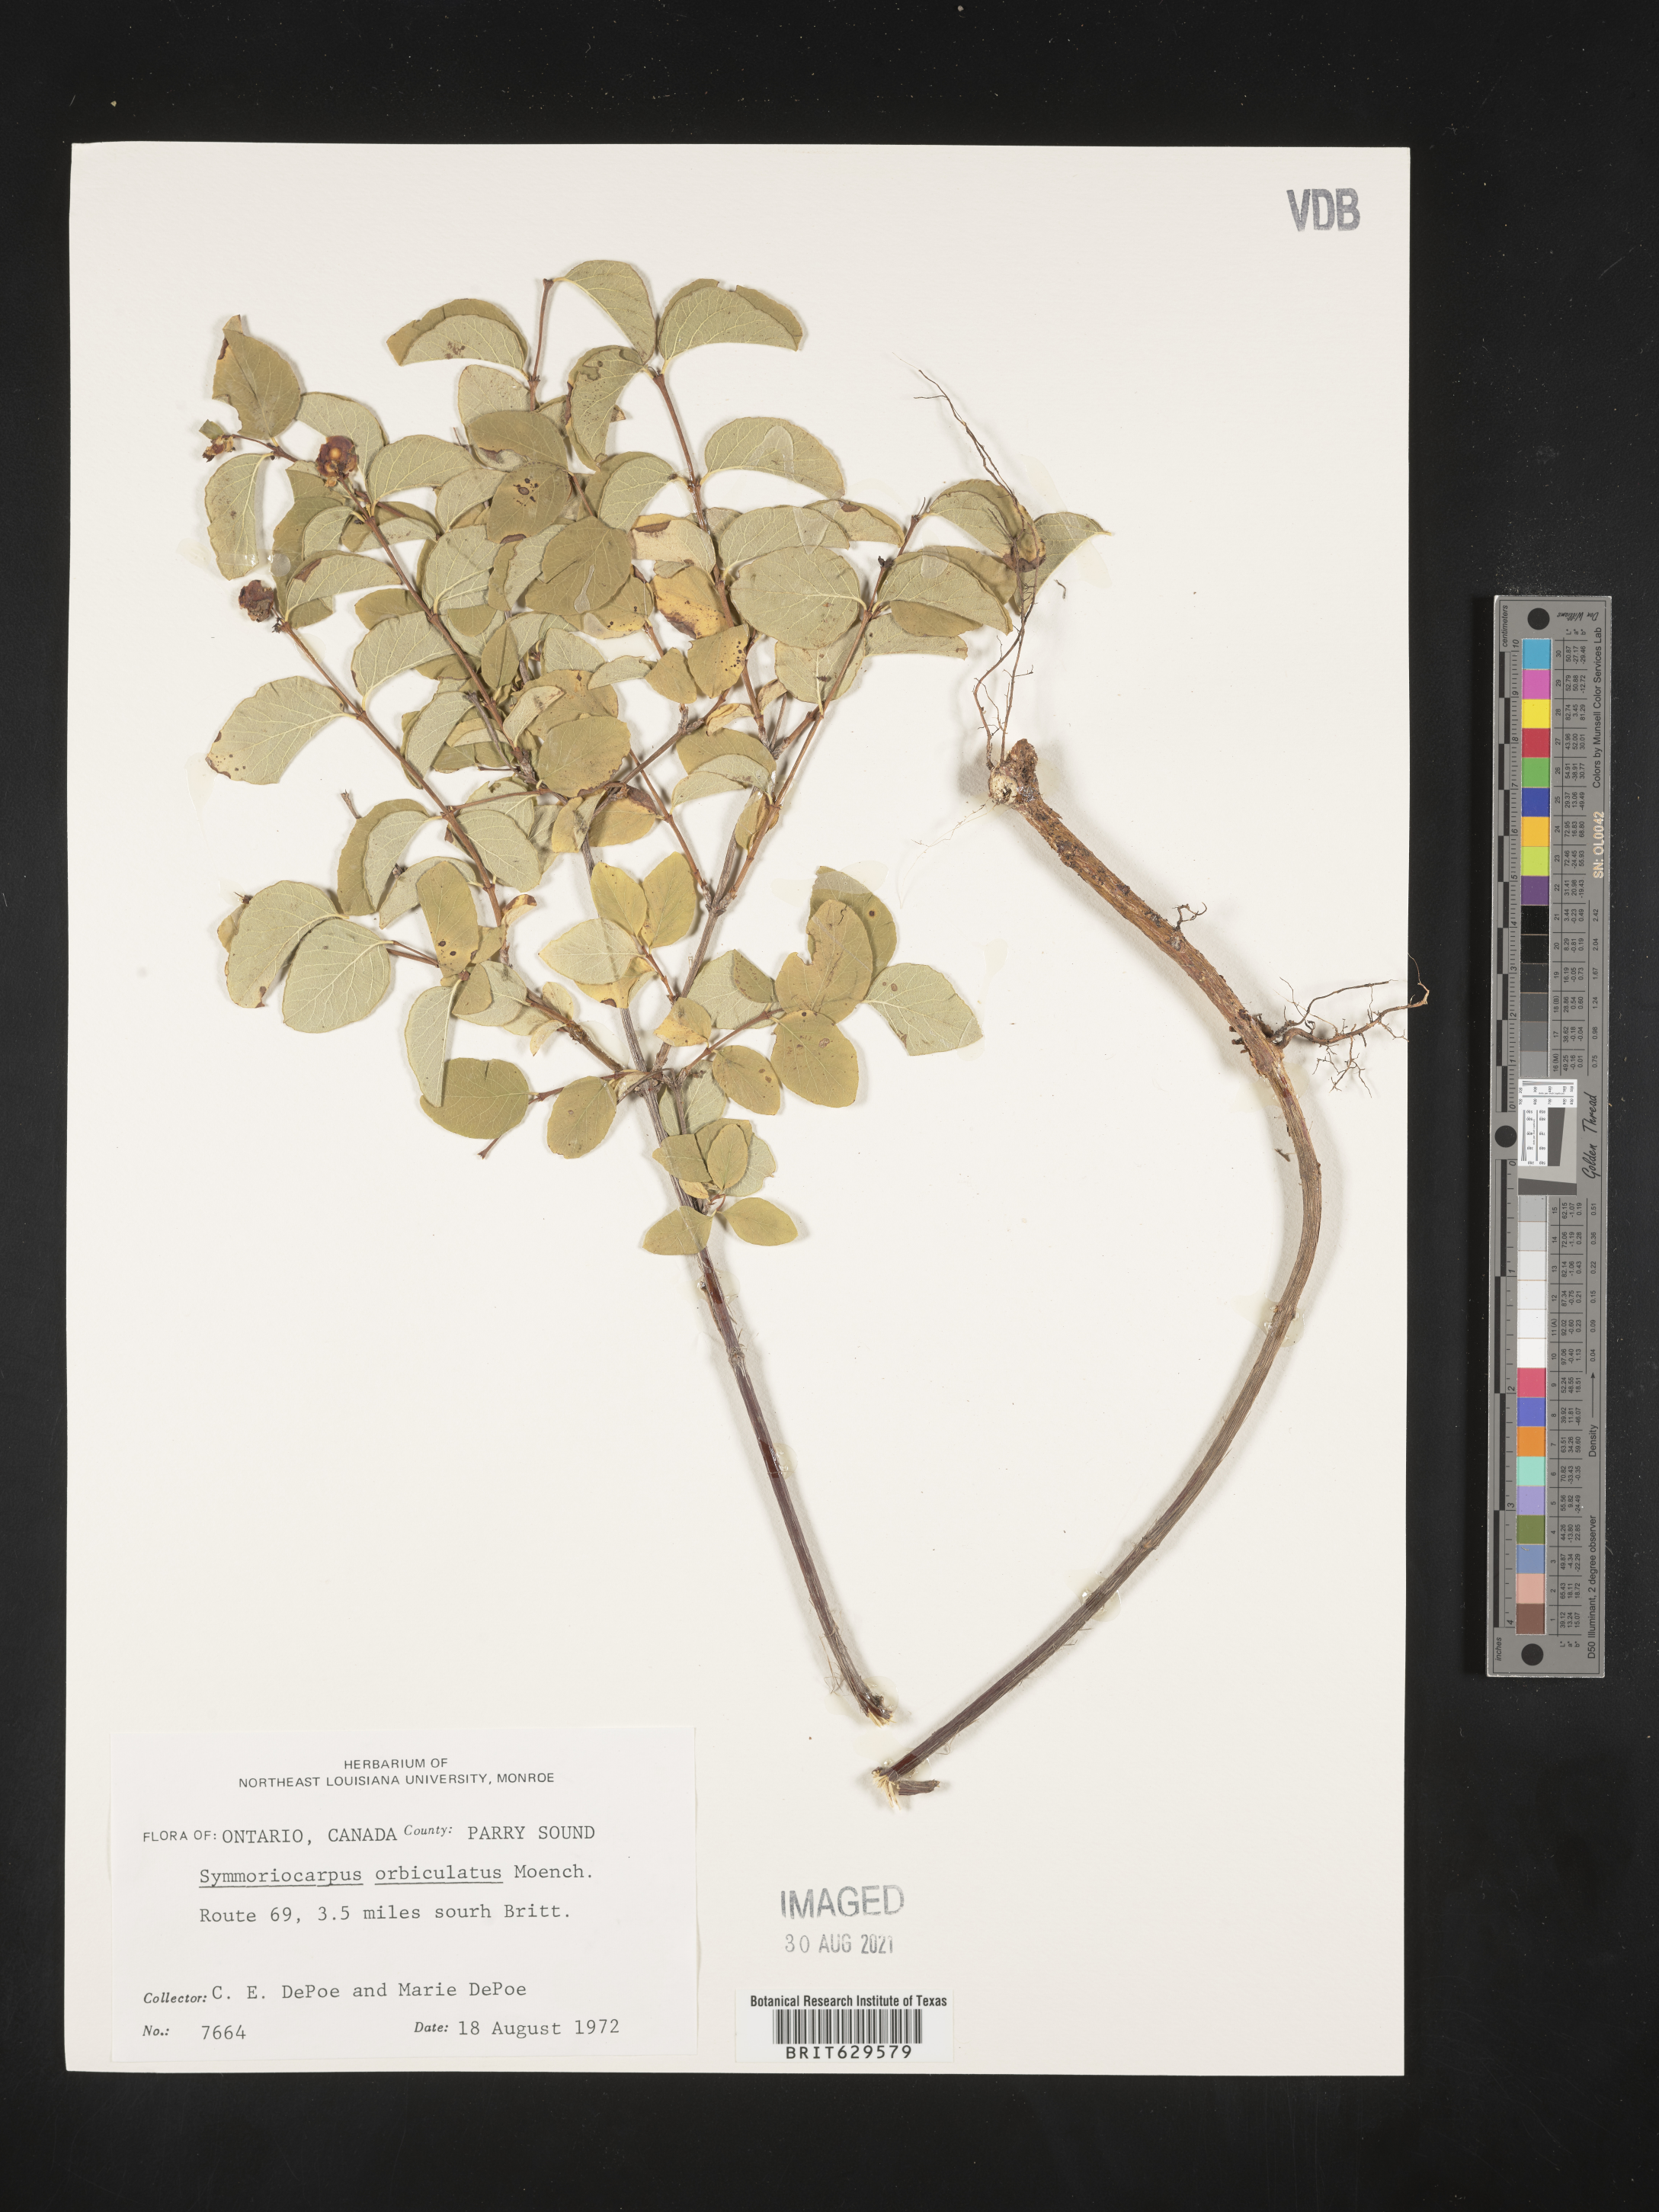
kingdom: Plantae
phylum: Tracheophyta
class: Magnoliopsida
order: Dipsacales
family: Caprifoliaceae
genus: Symphoricarpos
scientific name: Symphoricarpos orbiculatus
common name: Coralberry
